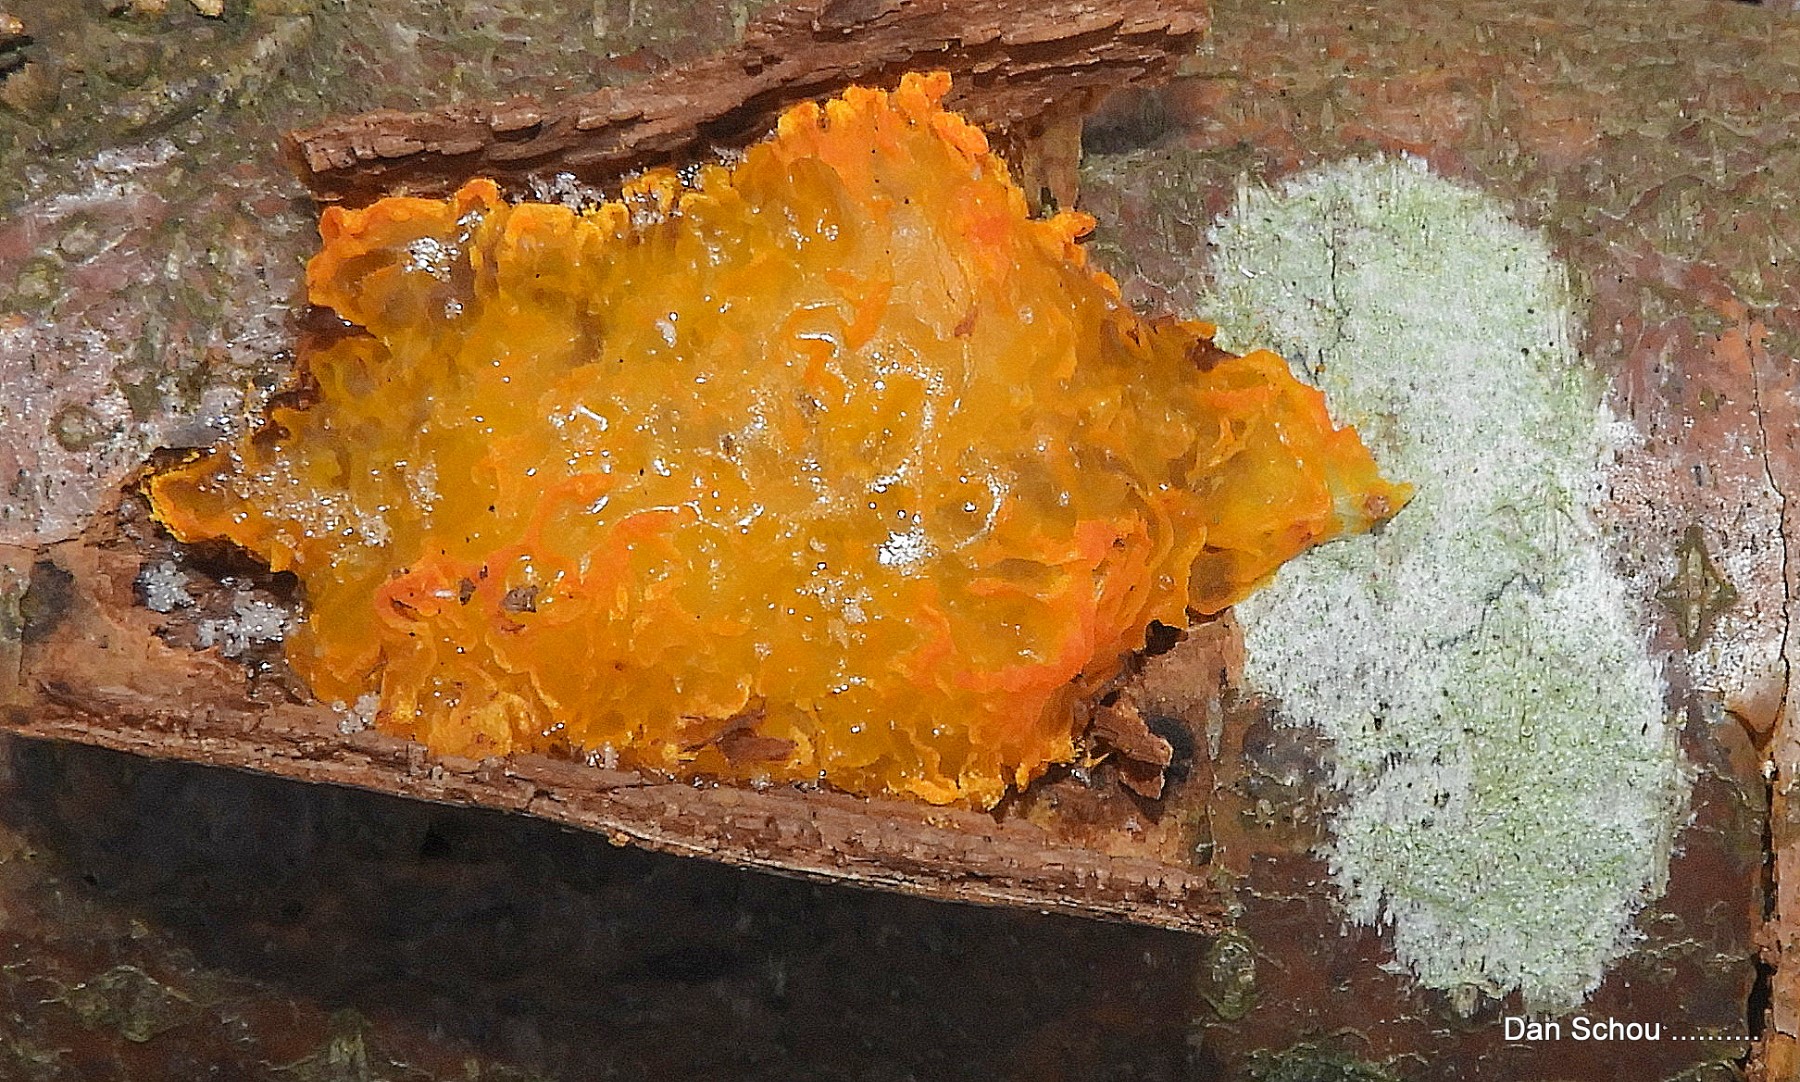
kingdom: Fungi
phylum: Basidiomycota
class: Tremellomycetes
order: Tremellales
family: Tremellaceae
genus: Tremella
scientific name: Tremella mesenterica
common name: gul bævresvamp
